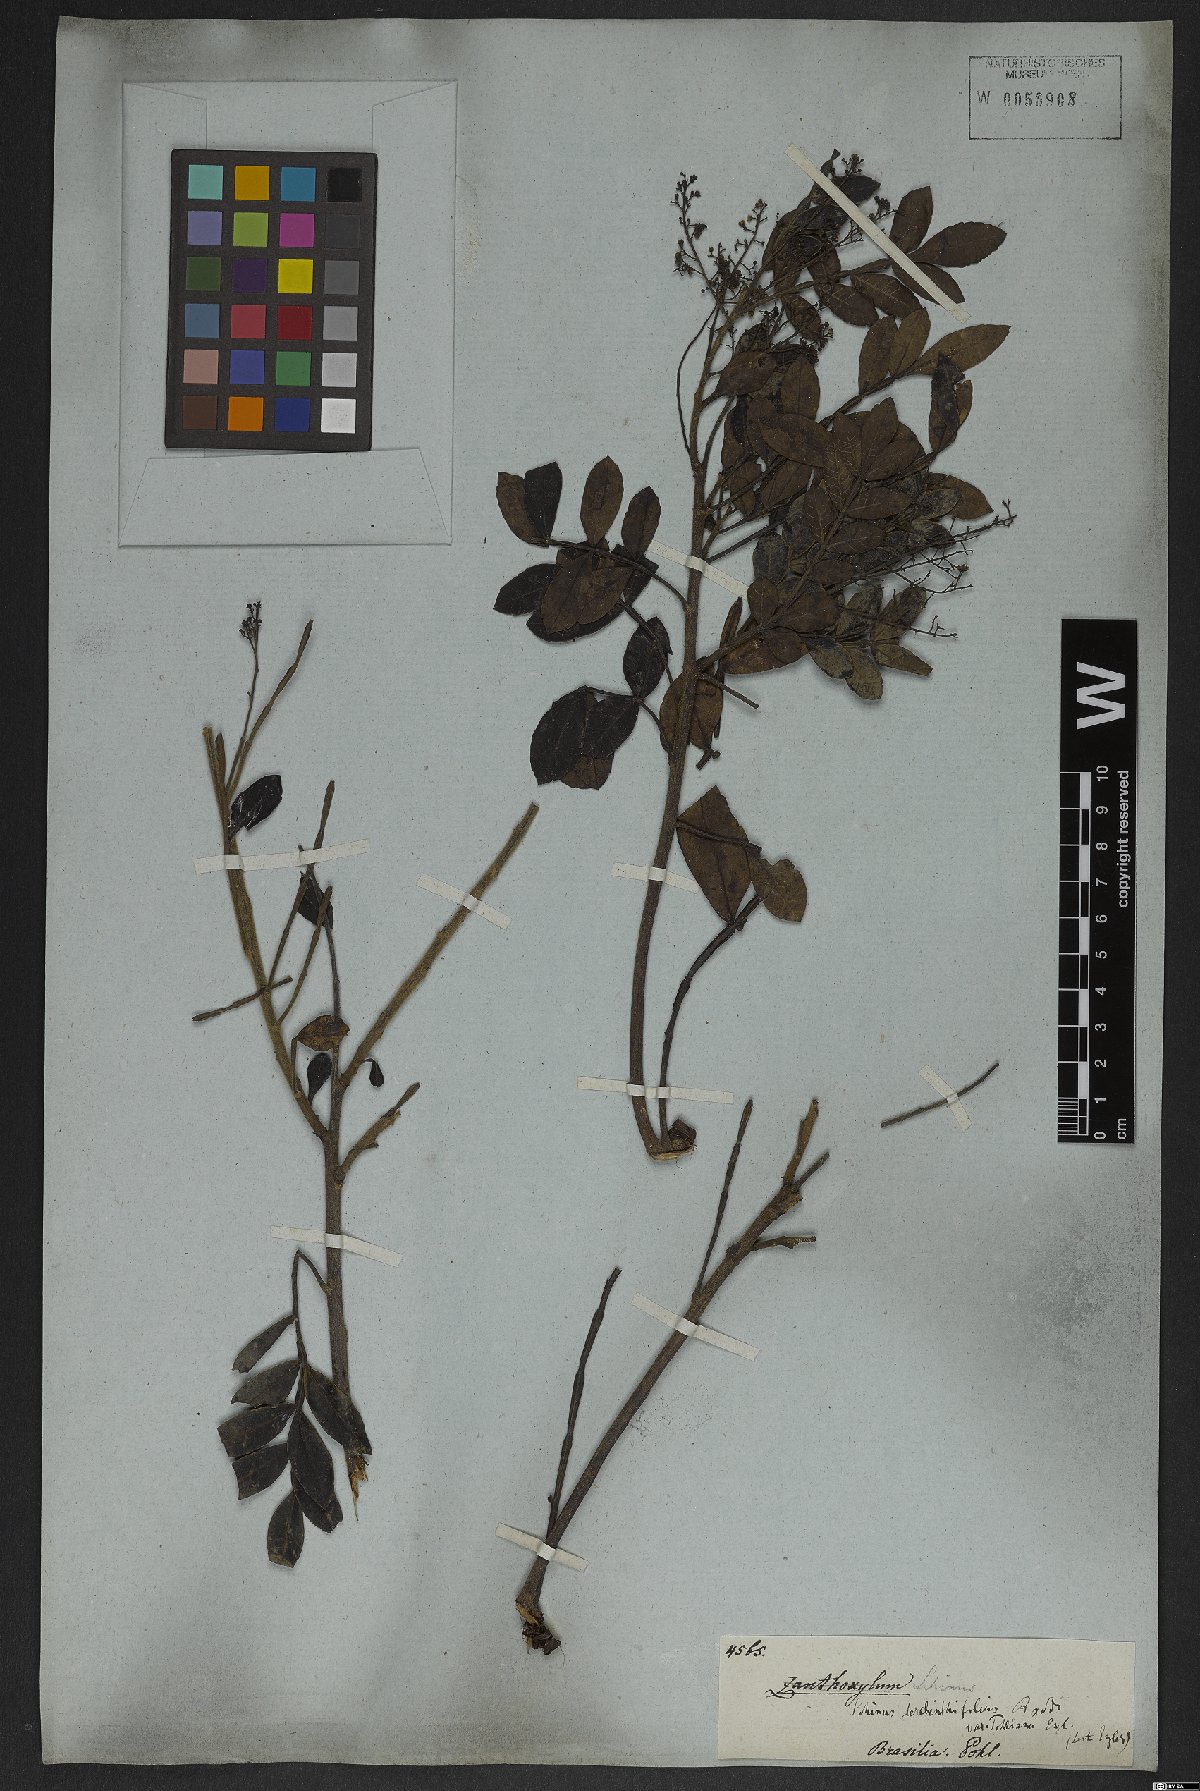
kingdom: Plantae
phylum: Tracheophyta
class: Magnoliopsida
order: Sapindales
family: Anacardiaceae
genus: Schinus
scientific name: Schinus terebinthifolia
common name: Brazilian peppertree
